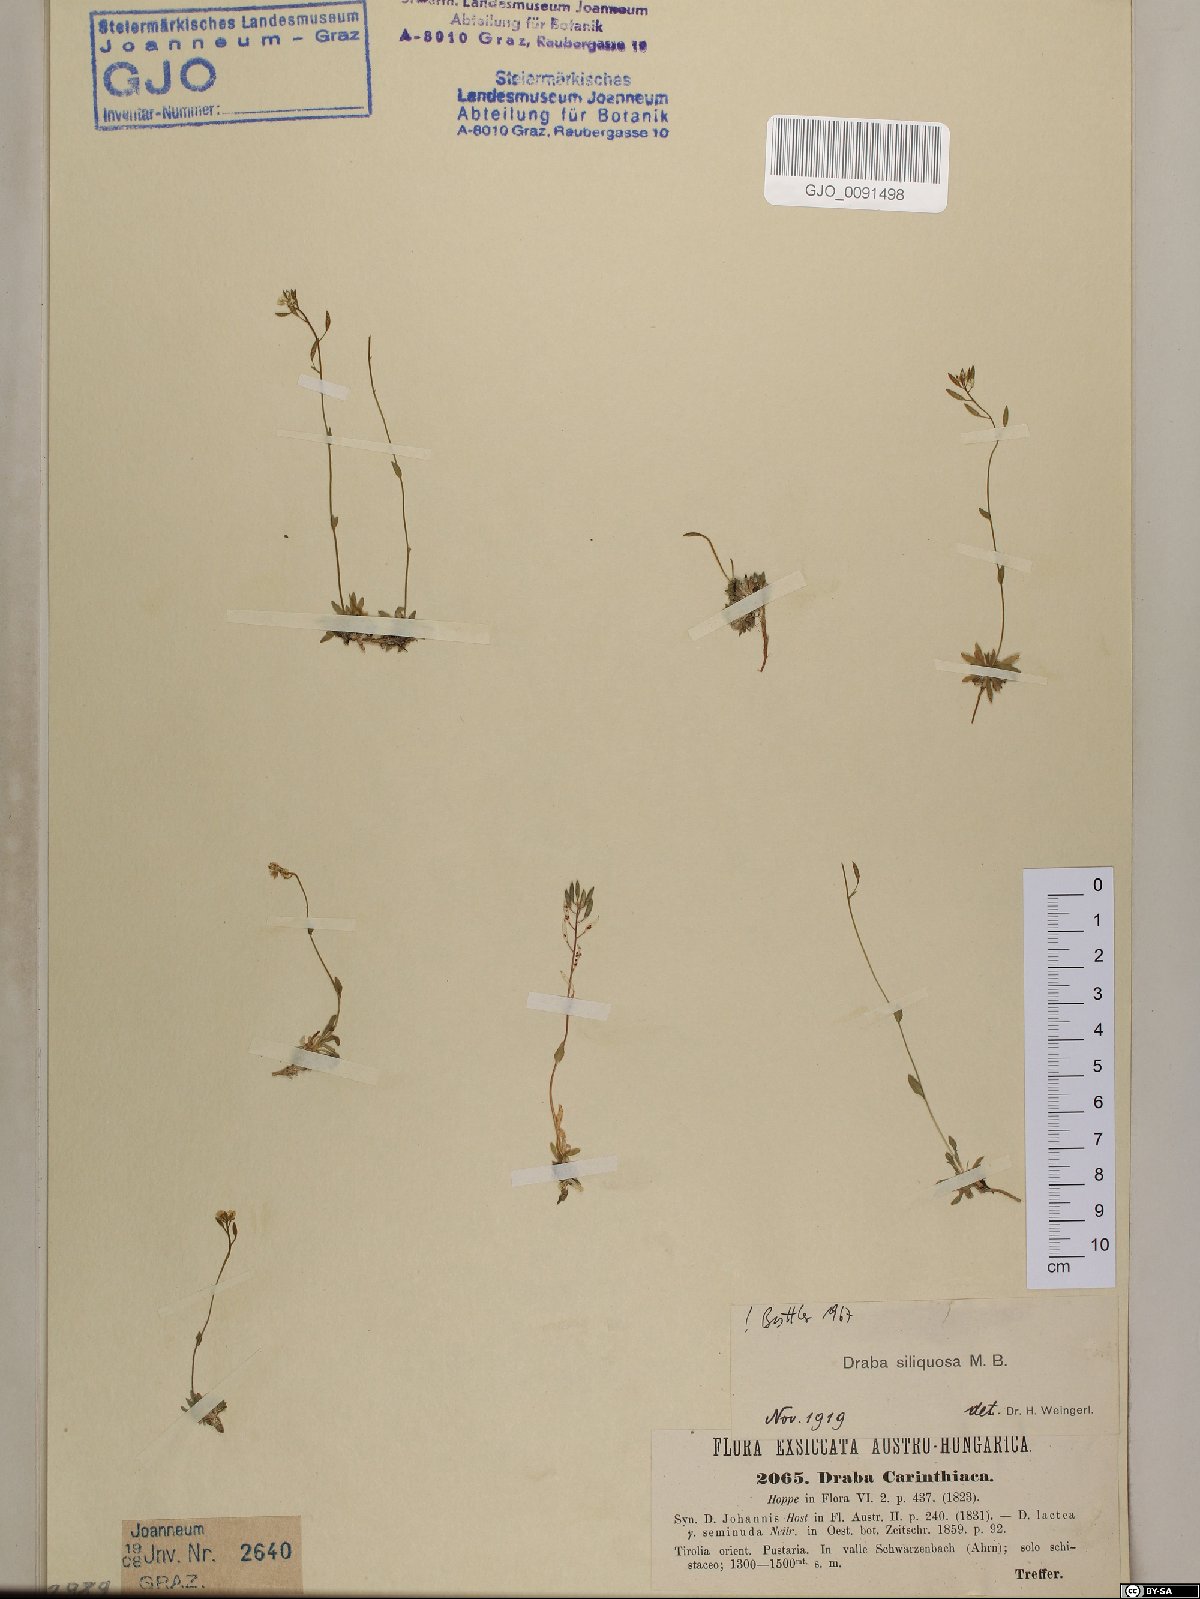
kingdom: Plantae
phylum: Tracheophyta
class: Magnoliopsida
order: Brassicales
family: Brassicaceae
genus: Draba
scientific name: Draba siliquosa
